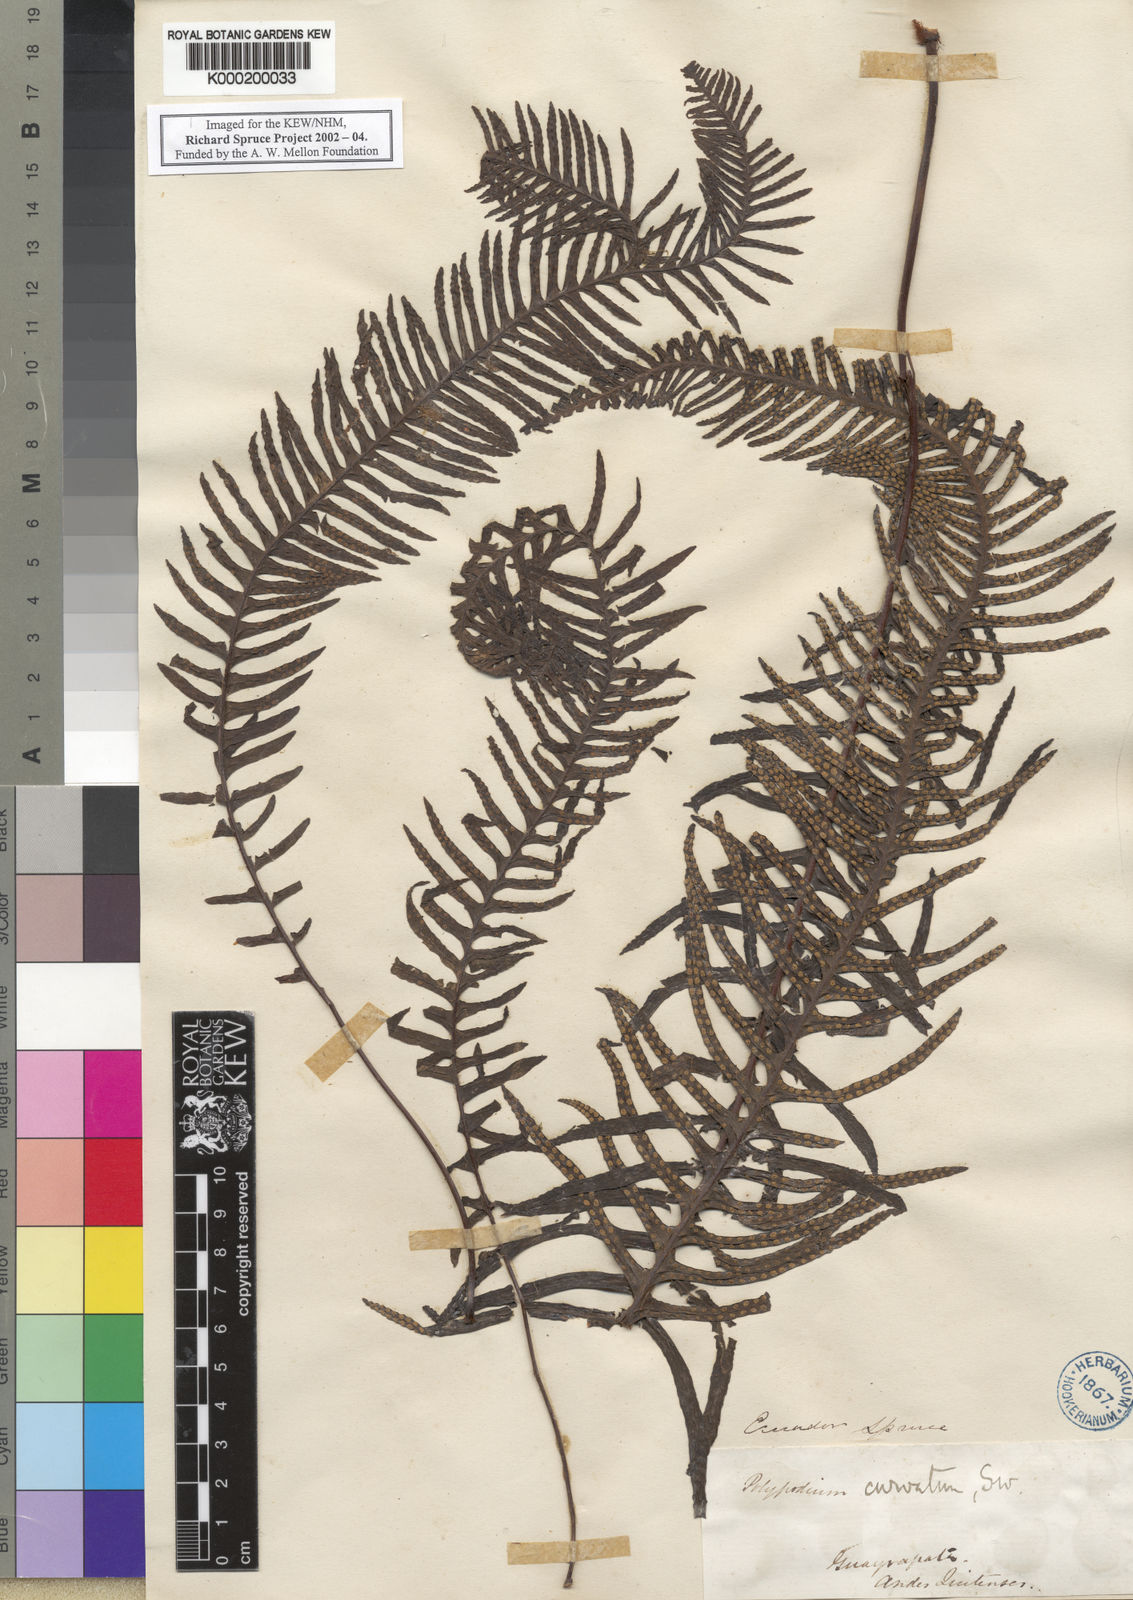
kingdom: Plantae
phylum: Tracheophyta
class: Polypodiopsida
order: Polypodiales
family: Polypodiaceae
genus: Pecluma
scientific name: Pecluma curvans
